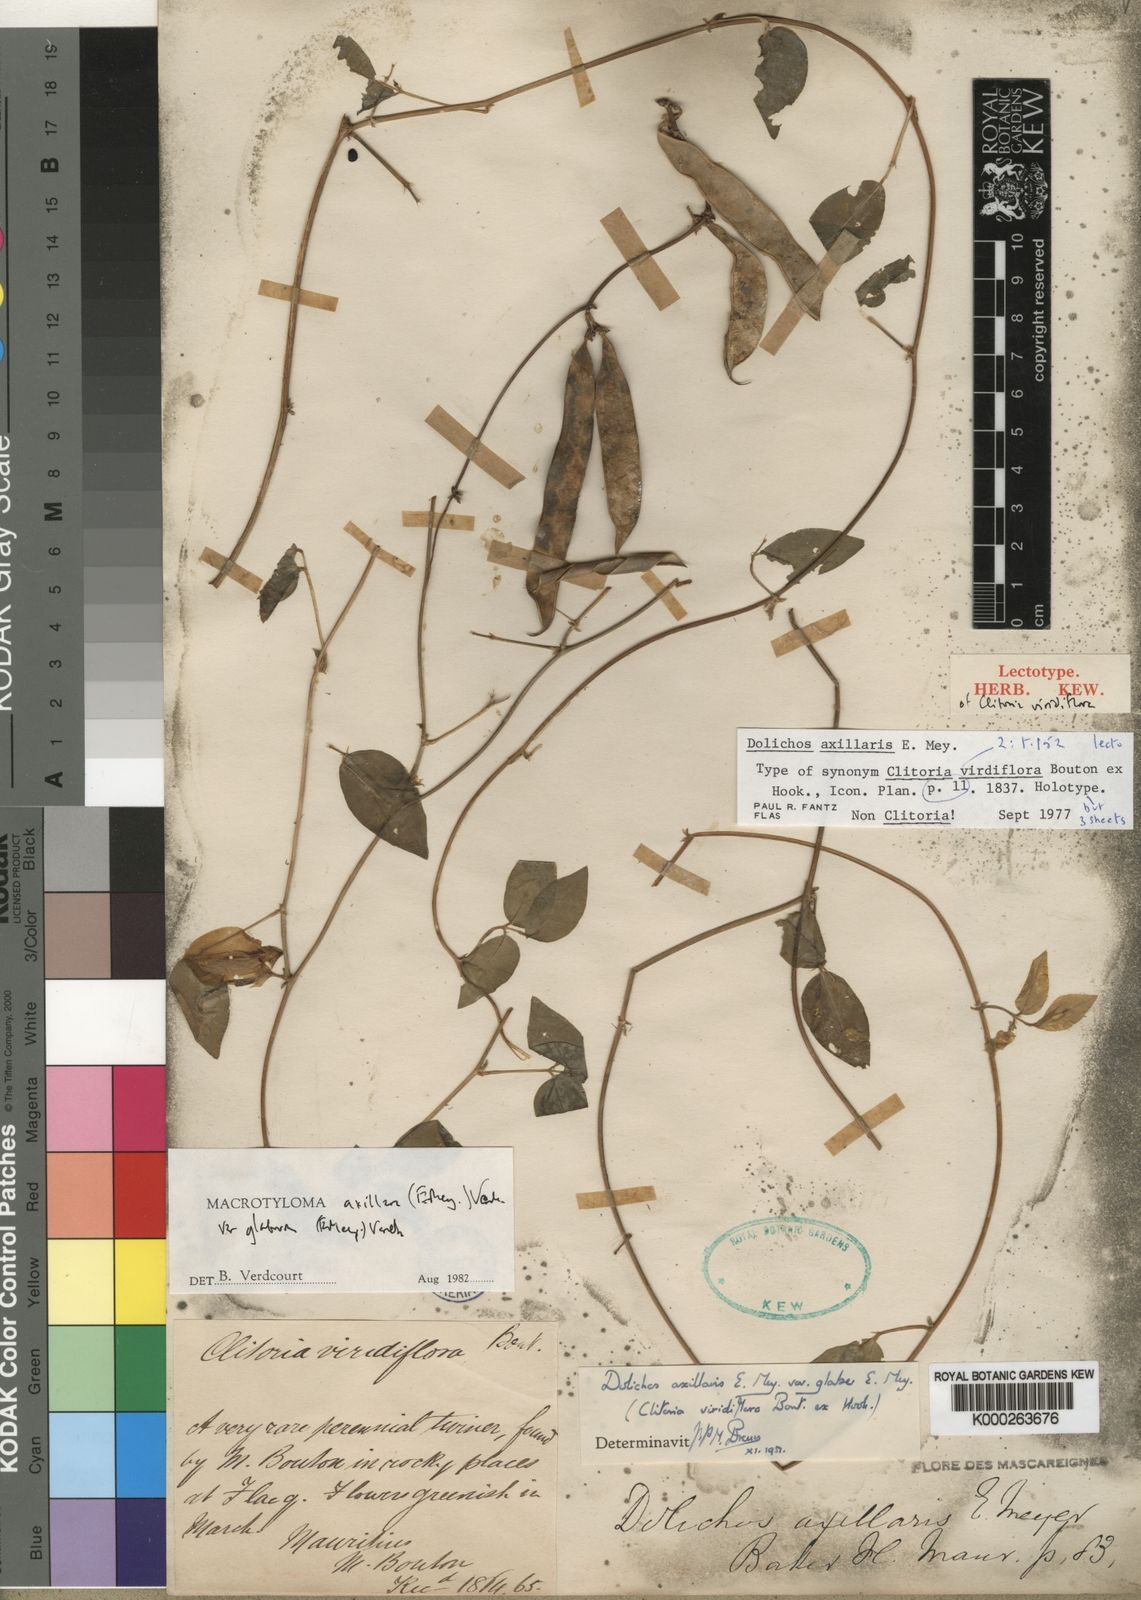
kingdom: Plantae
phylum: Tracheophyta
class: Magnoliopsida
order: Fabales
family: Fabaceae
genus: Macrotyloma
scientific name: Macrotyloma axillare
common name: Perennial horsegram
